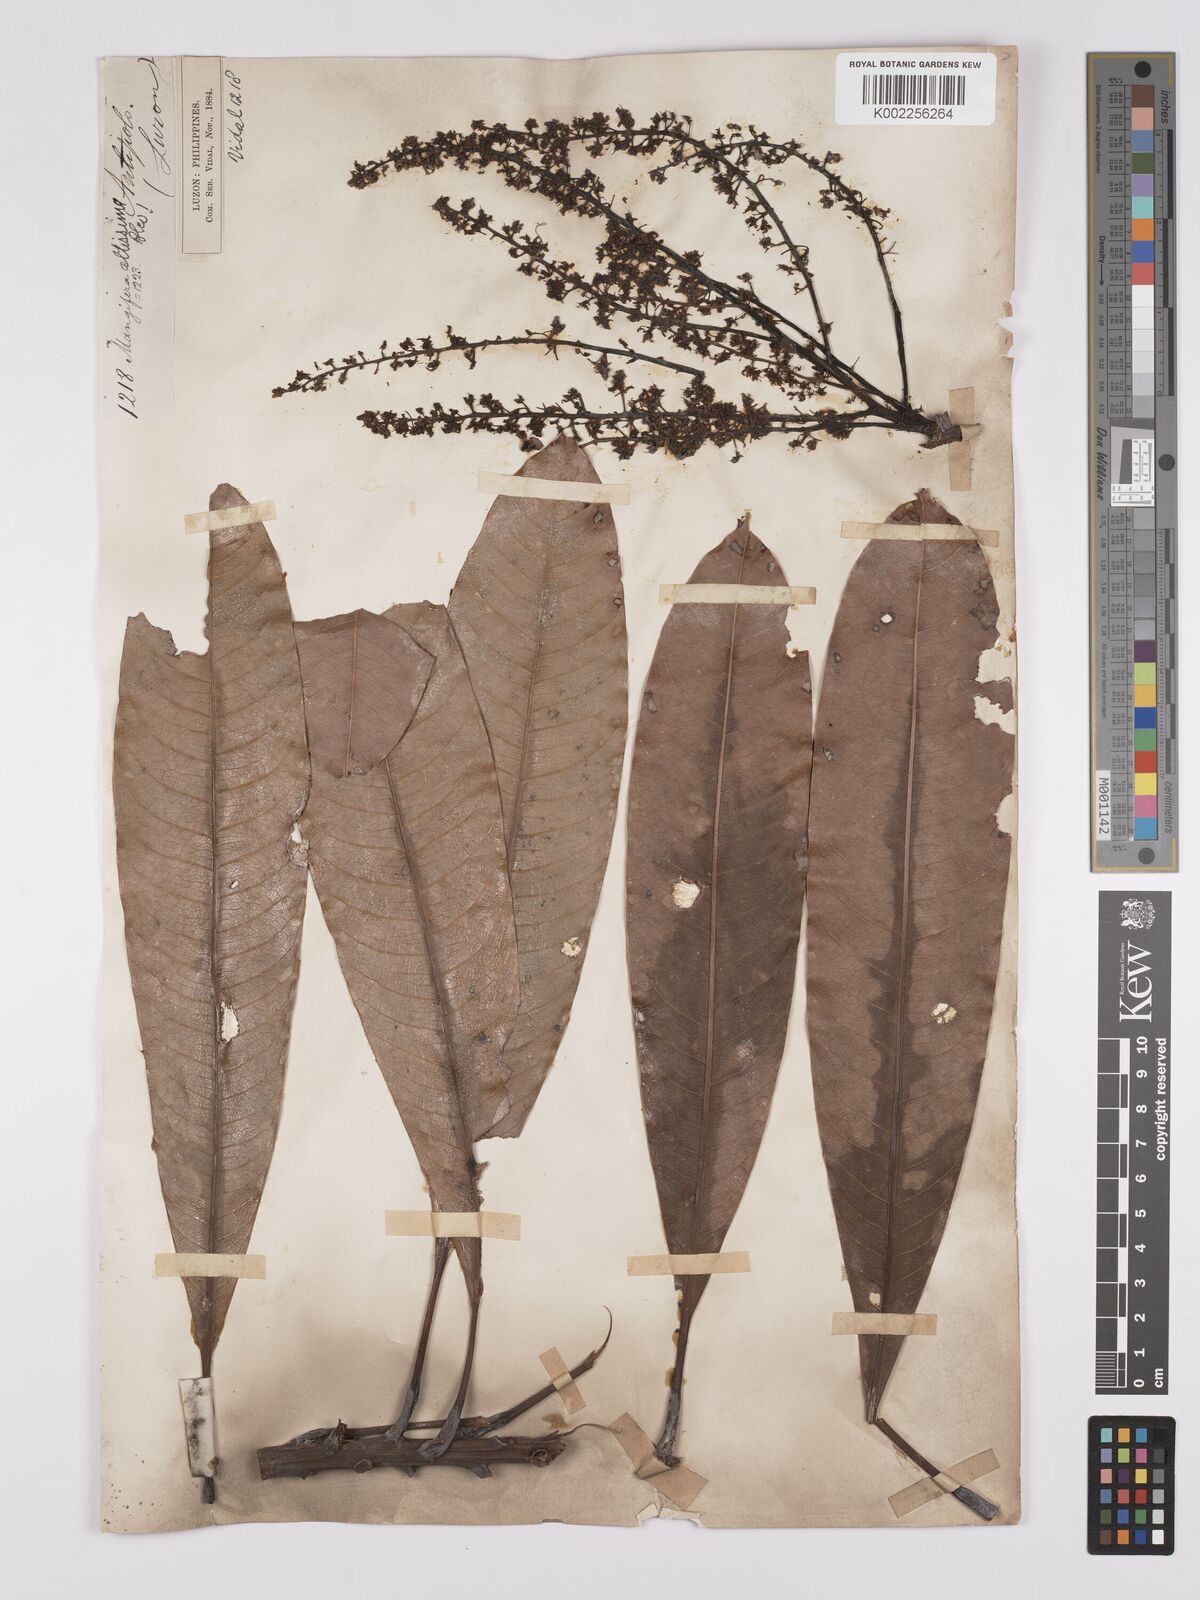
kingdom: Plantae
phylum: Tracheophyta
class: Magnoliopsida
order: Sapindales
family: Anacardiaceae
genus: Mangifera
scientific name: Mangifera altissima
